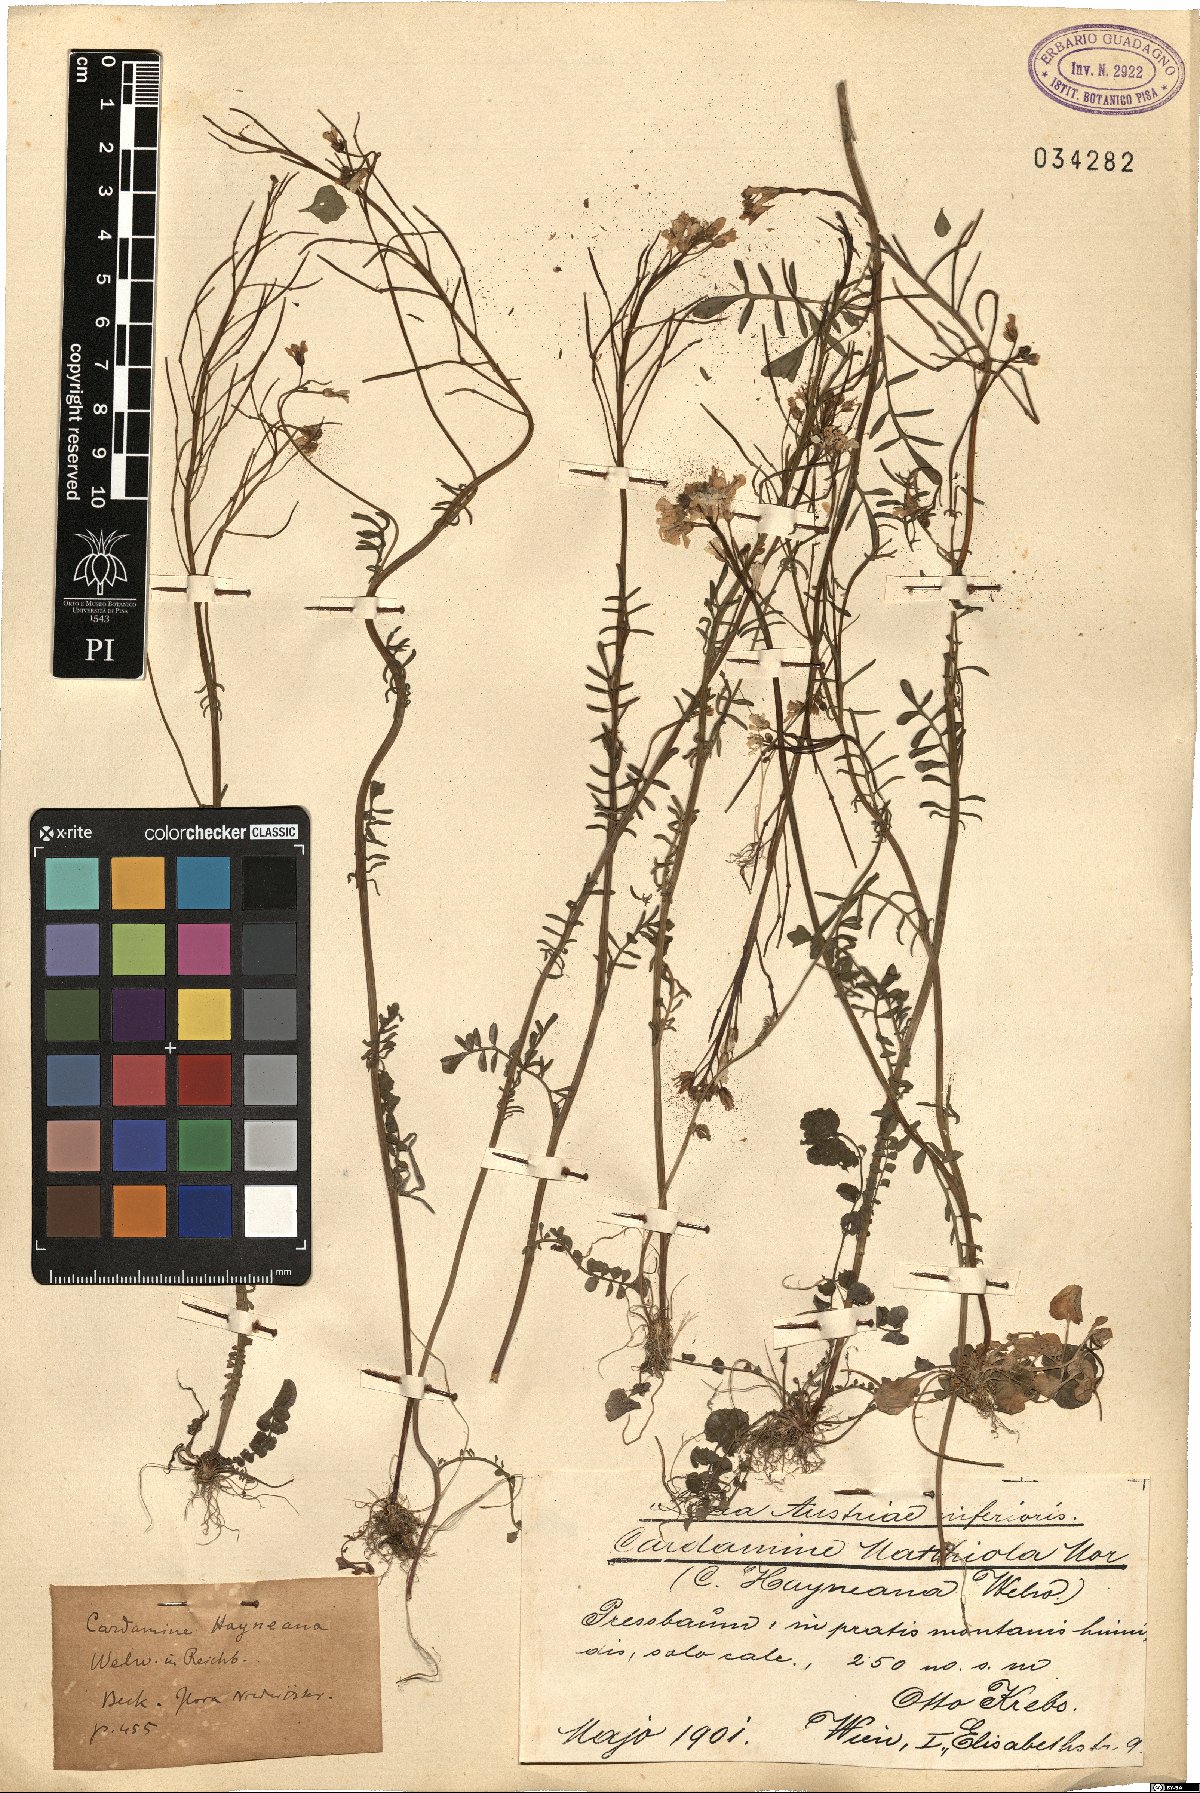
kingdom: Plantae
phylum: Tracheophyta
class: Magnoliopsida
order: Brassicales
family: Brassicaceae
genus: Cardamine
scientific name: Cardamine matthioli
